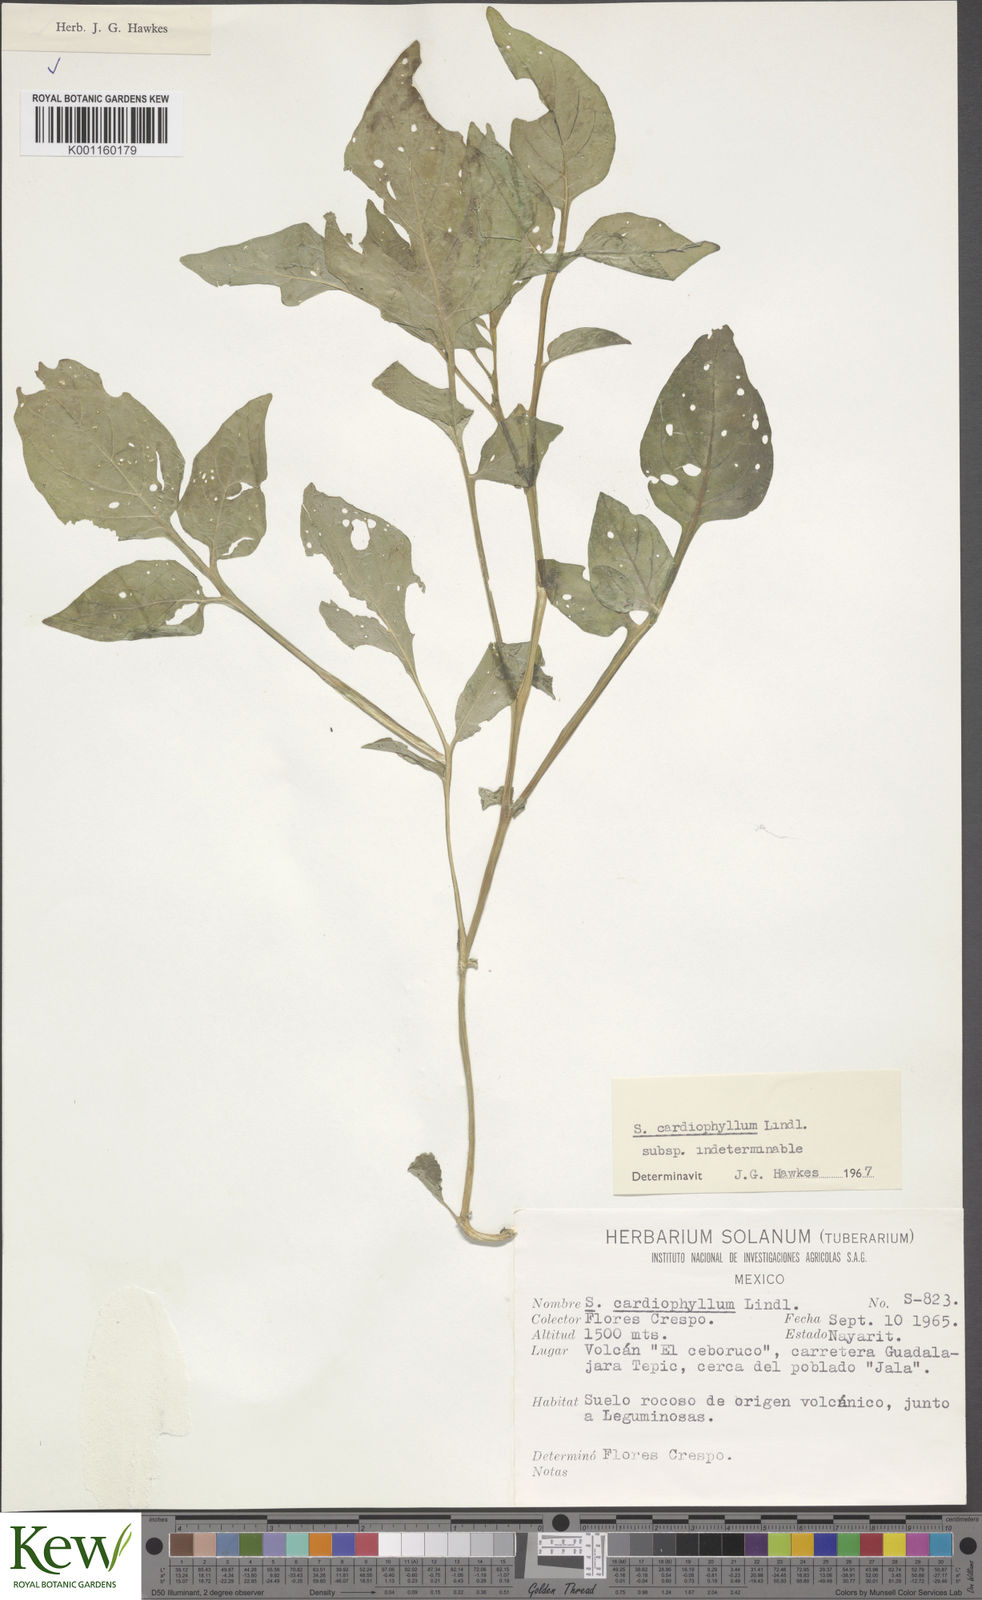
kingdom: Plantae
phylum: Tracheophyta
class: Magnoliopsida
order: Solanales
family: Solanaceae
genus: Solanum
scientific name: Solanum cardiophyllum
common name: Heartleaf horsenettle
